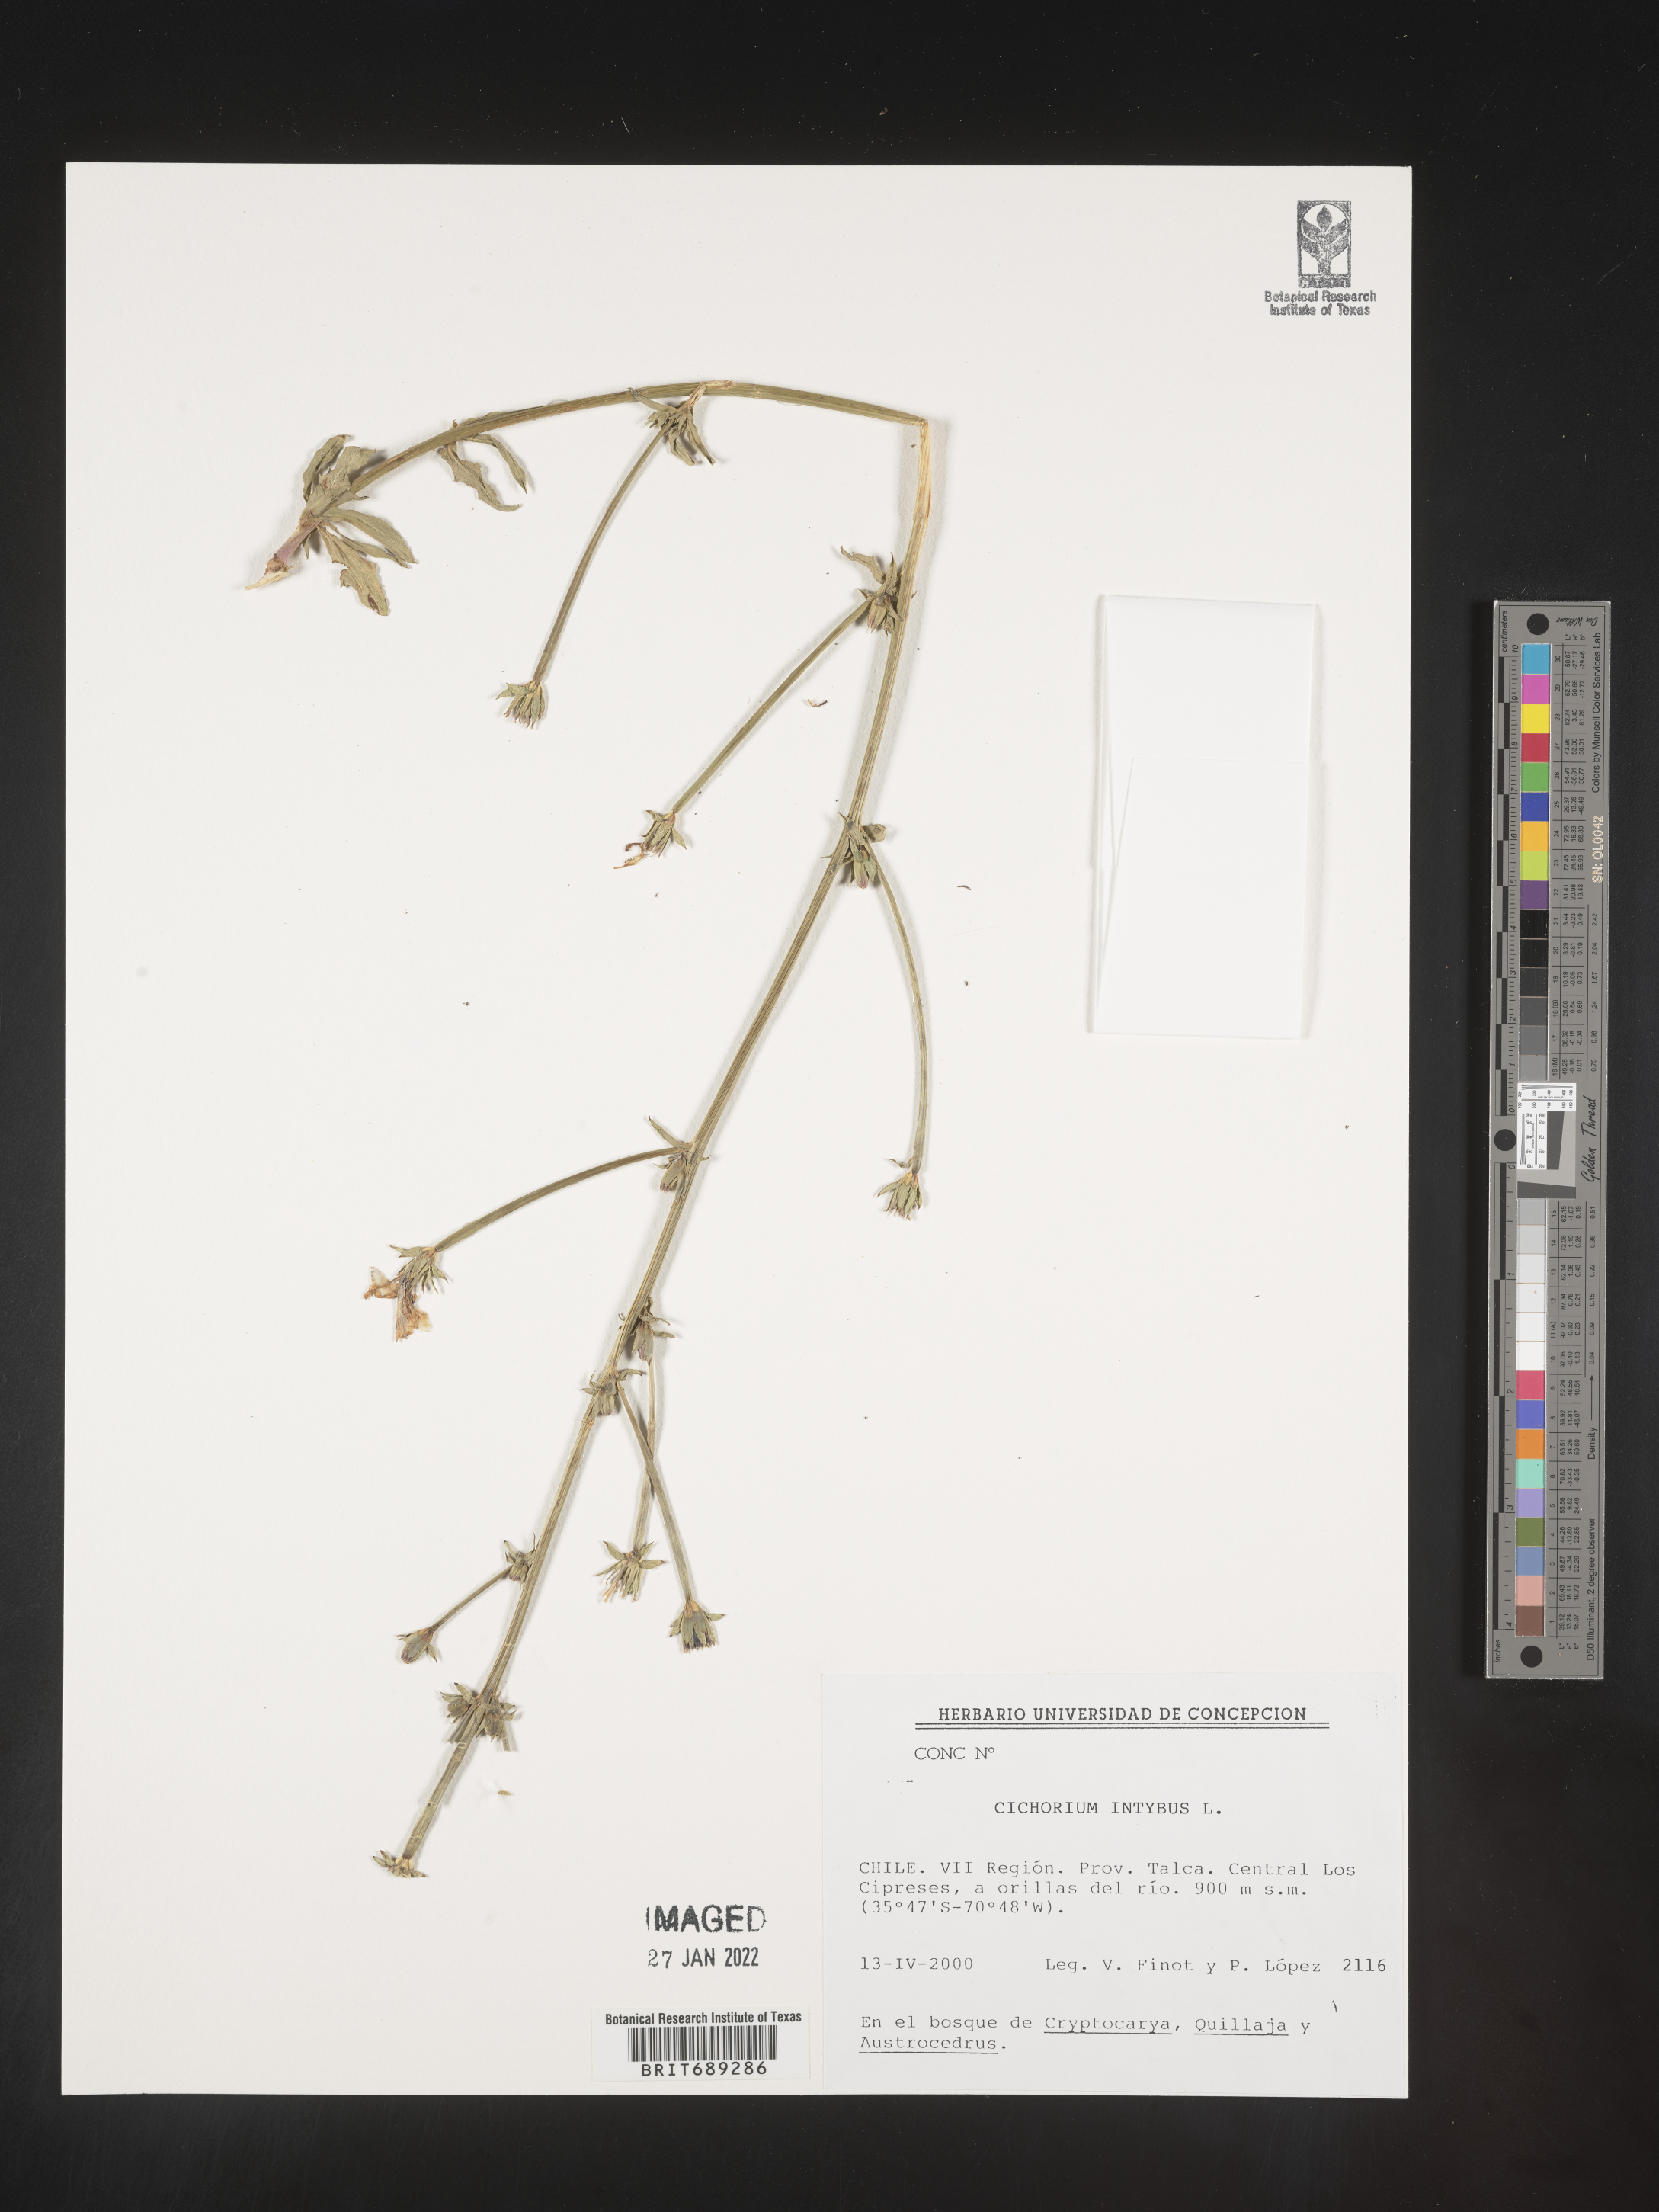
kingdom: Plantae
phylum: Tracheophyta
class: Magnoliopsida
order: Asterales
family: Asteraceae
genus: Cichorium
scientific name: Cichorium intybus
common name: Chicory
